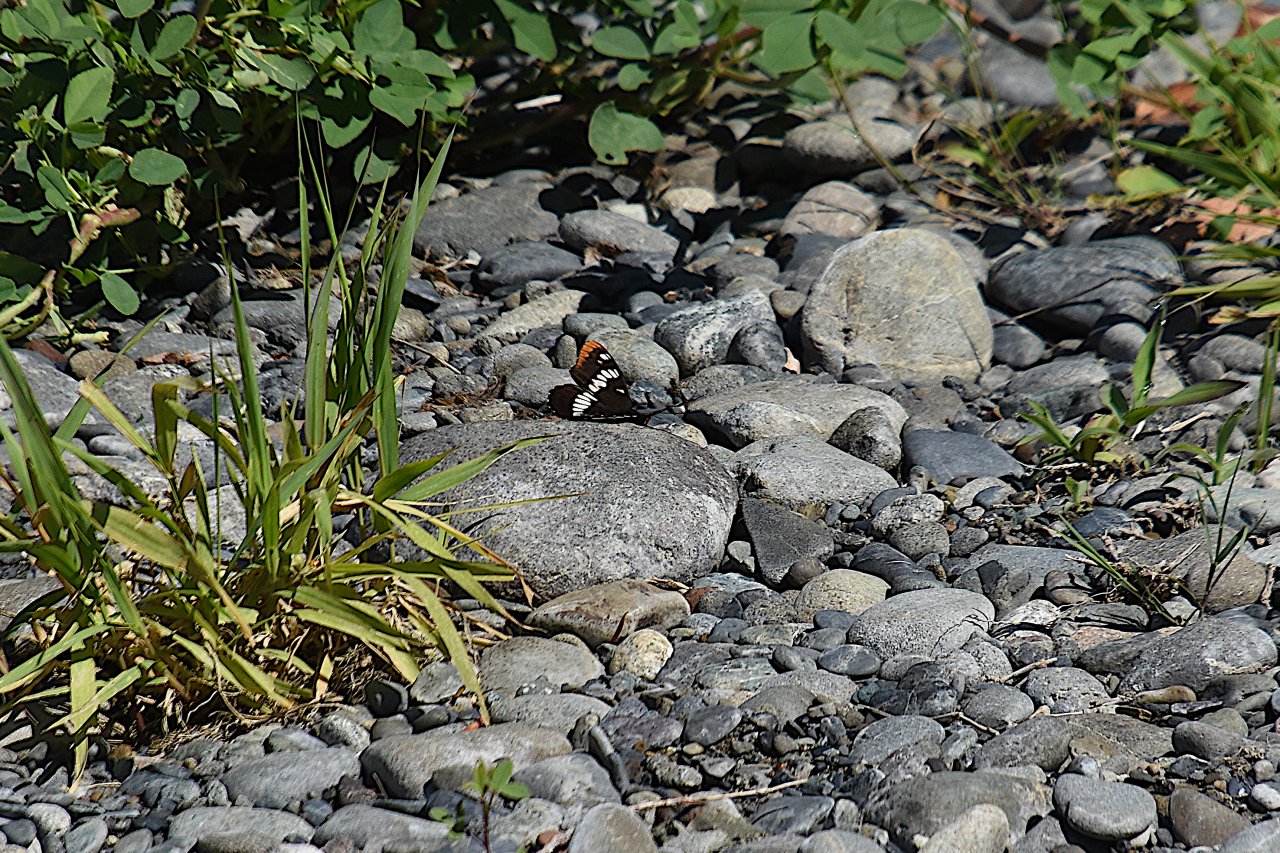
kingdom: Animalia
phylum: Arthropoda
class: Insecta
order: Lepidoptera
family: Nymphalidae
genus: Limenitis
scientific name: Limenitis lorquini
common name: Lorquin's Admiral
